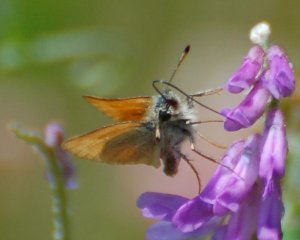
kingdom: Animalia
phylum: Arthropoda
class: Insecta
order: Lepidoptera
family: Hesperiidae
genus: Thymelicus
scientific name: Thymelicus lineola
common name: European Skipper
